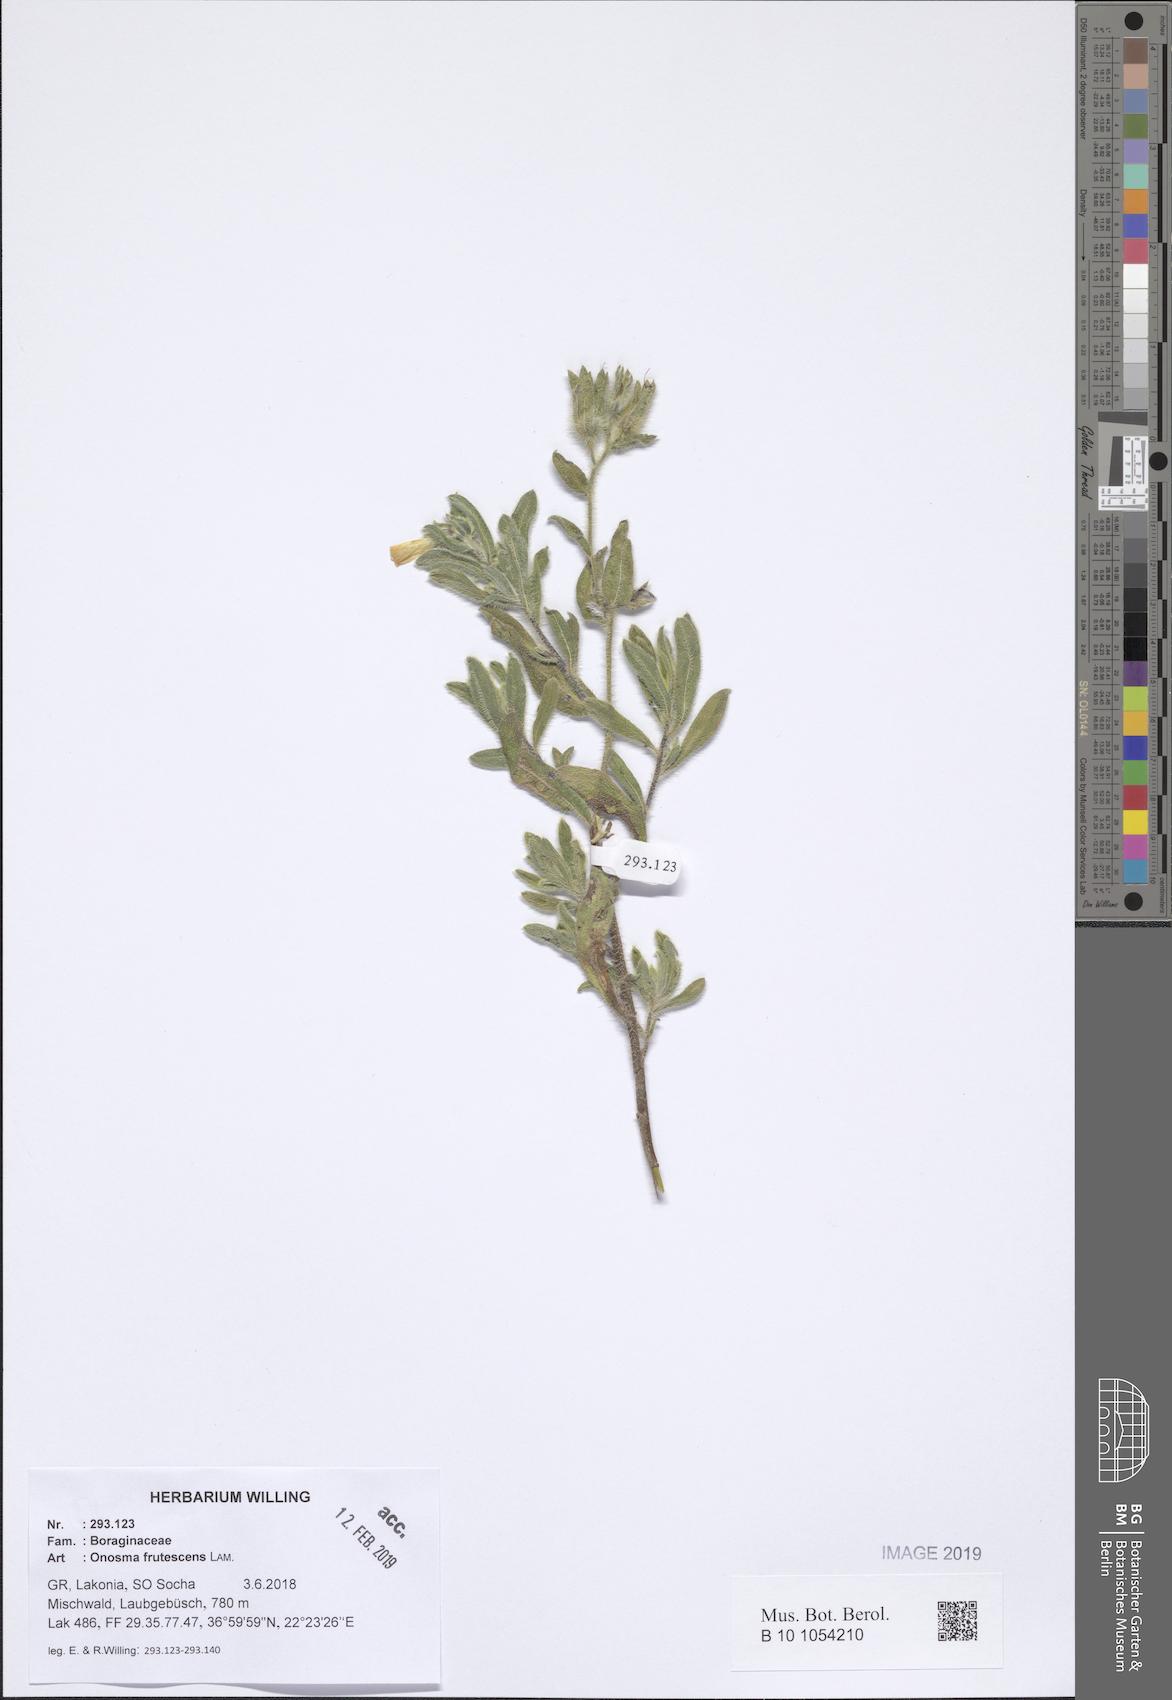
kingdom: Plantae
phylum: Tracheophyta
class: Magnoliopsida
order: Boraginales
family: Boraginaceae
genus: Onosma
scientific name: Onosma frutescens
